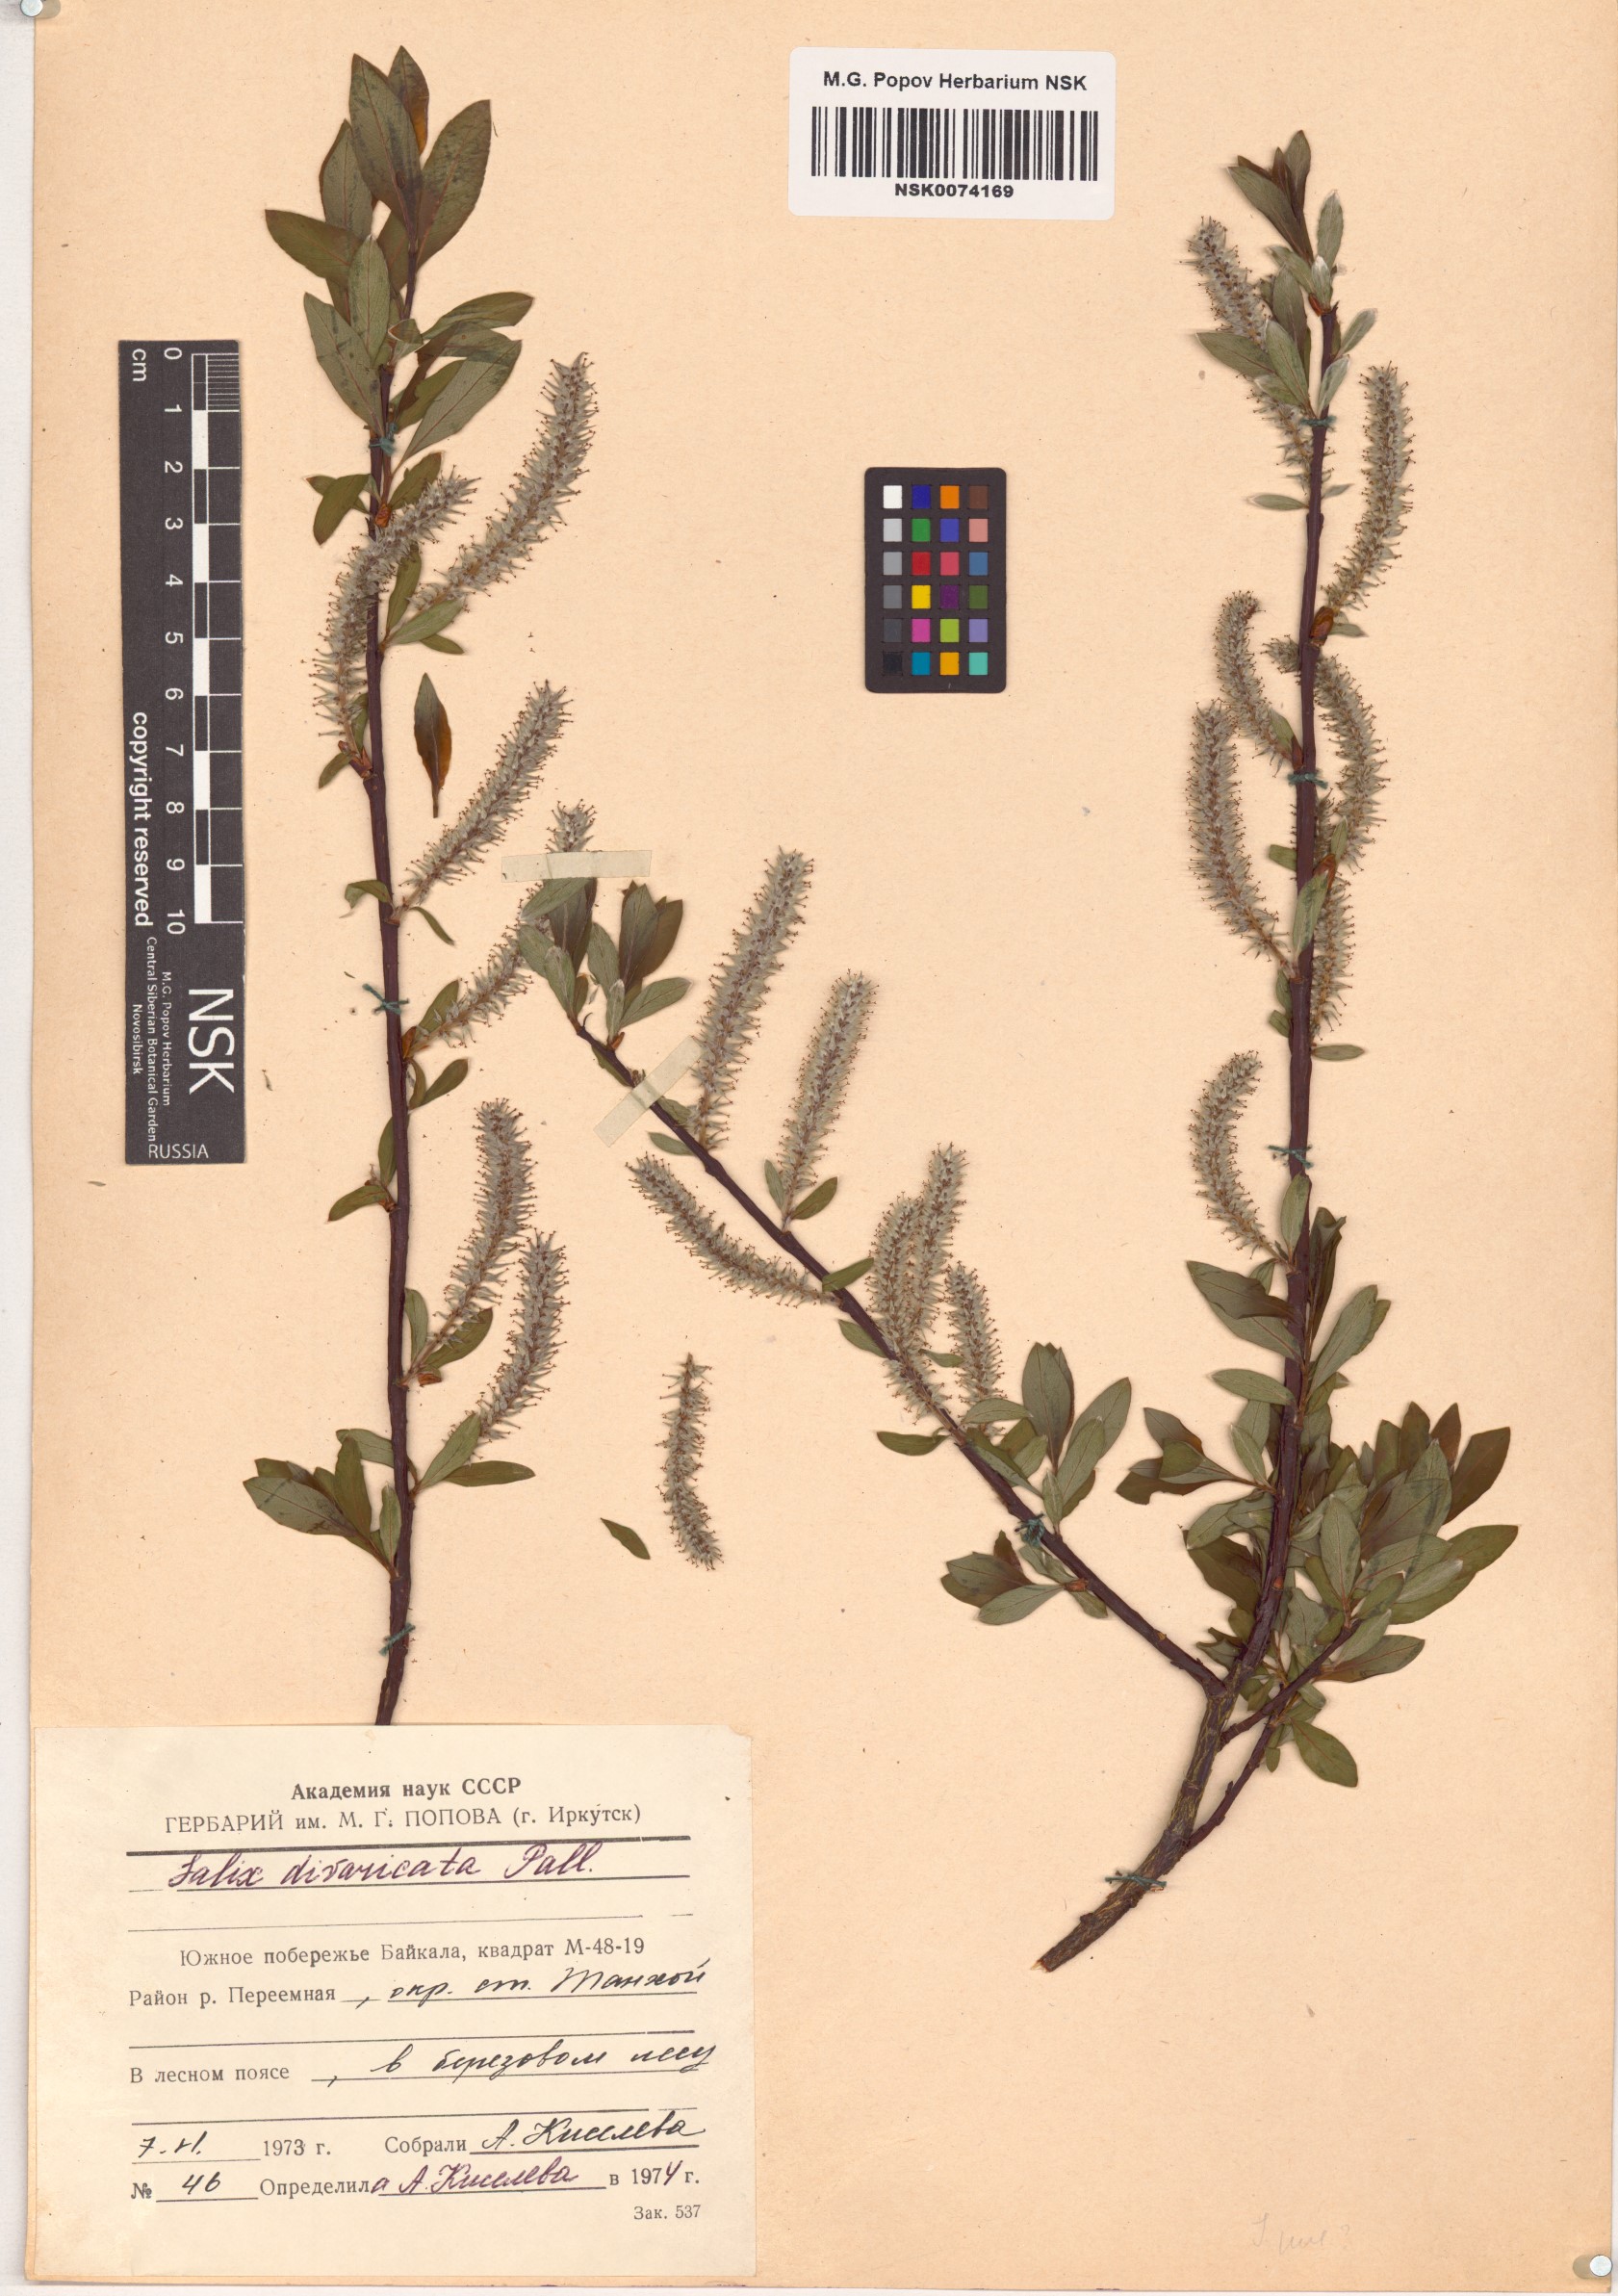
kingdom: Plantae
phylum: Tracheophyta
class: Magnoliopsida
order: Malpighiales
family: Salicaceae
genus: Salix
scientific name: Salix divaricata
